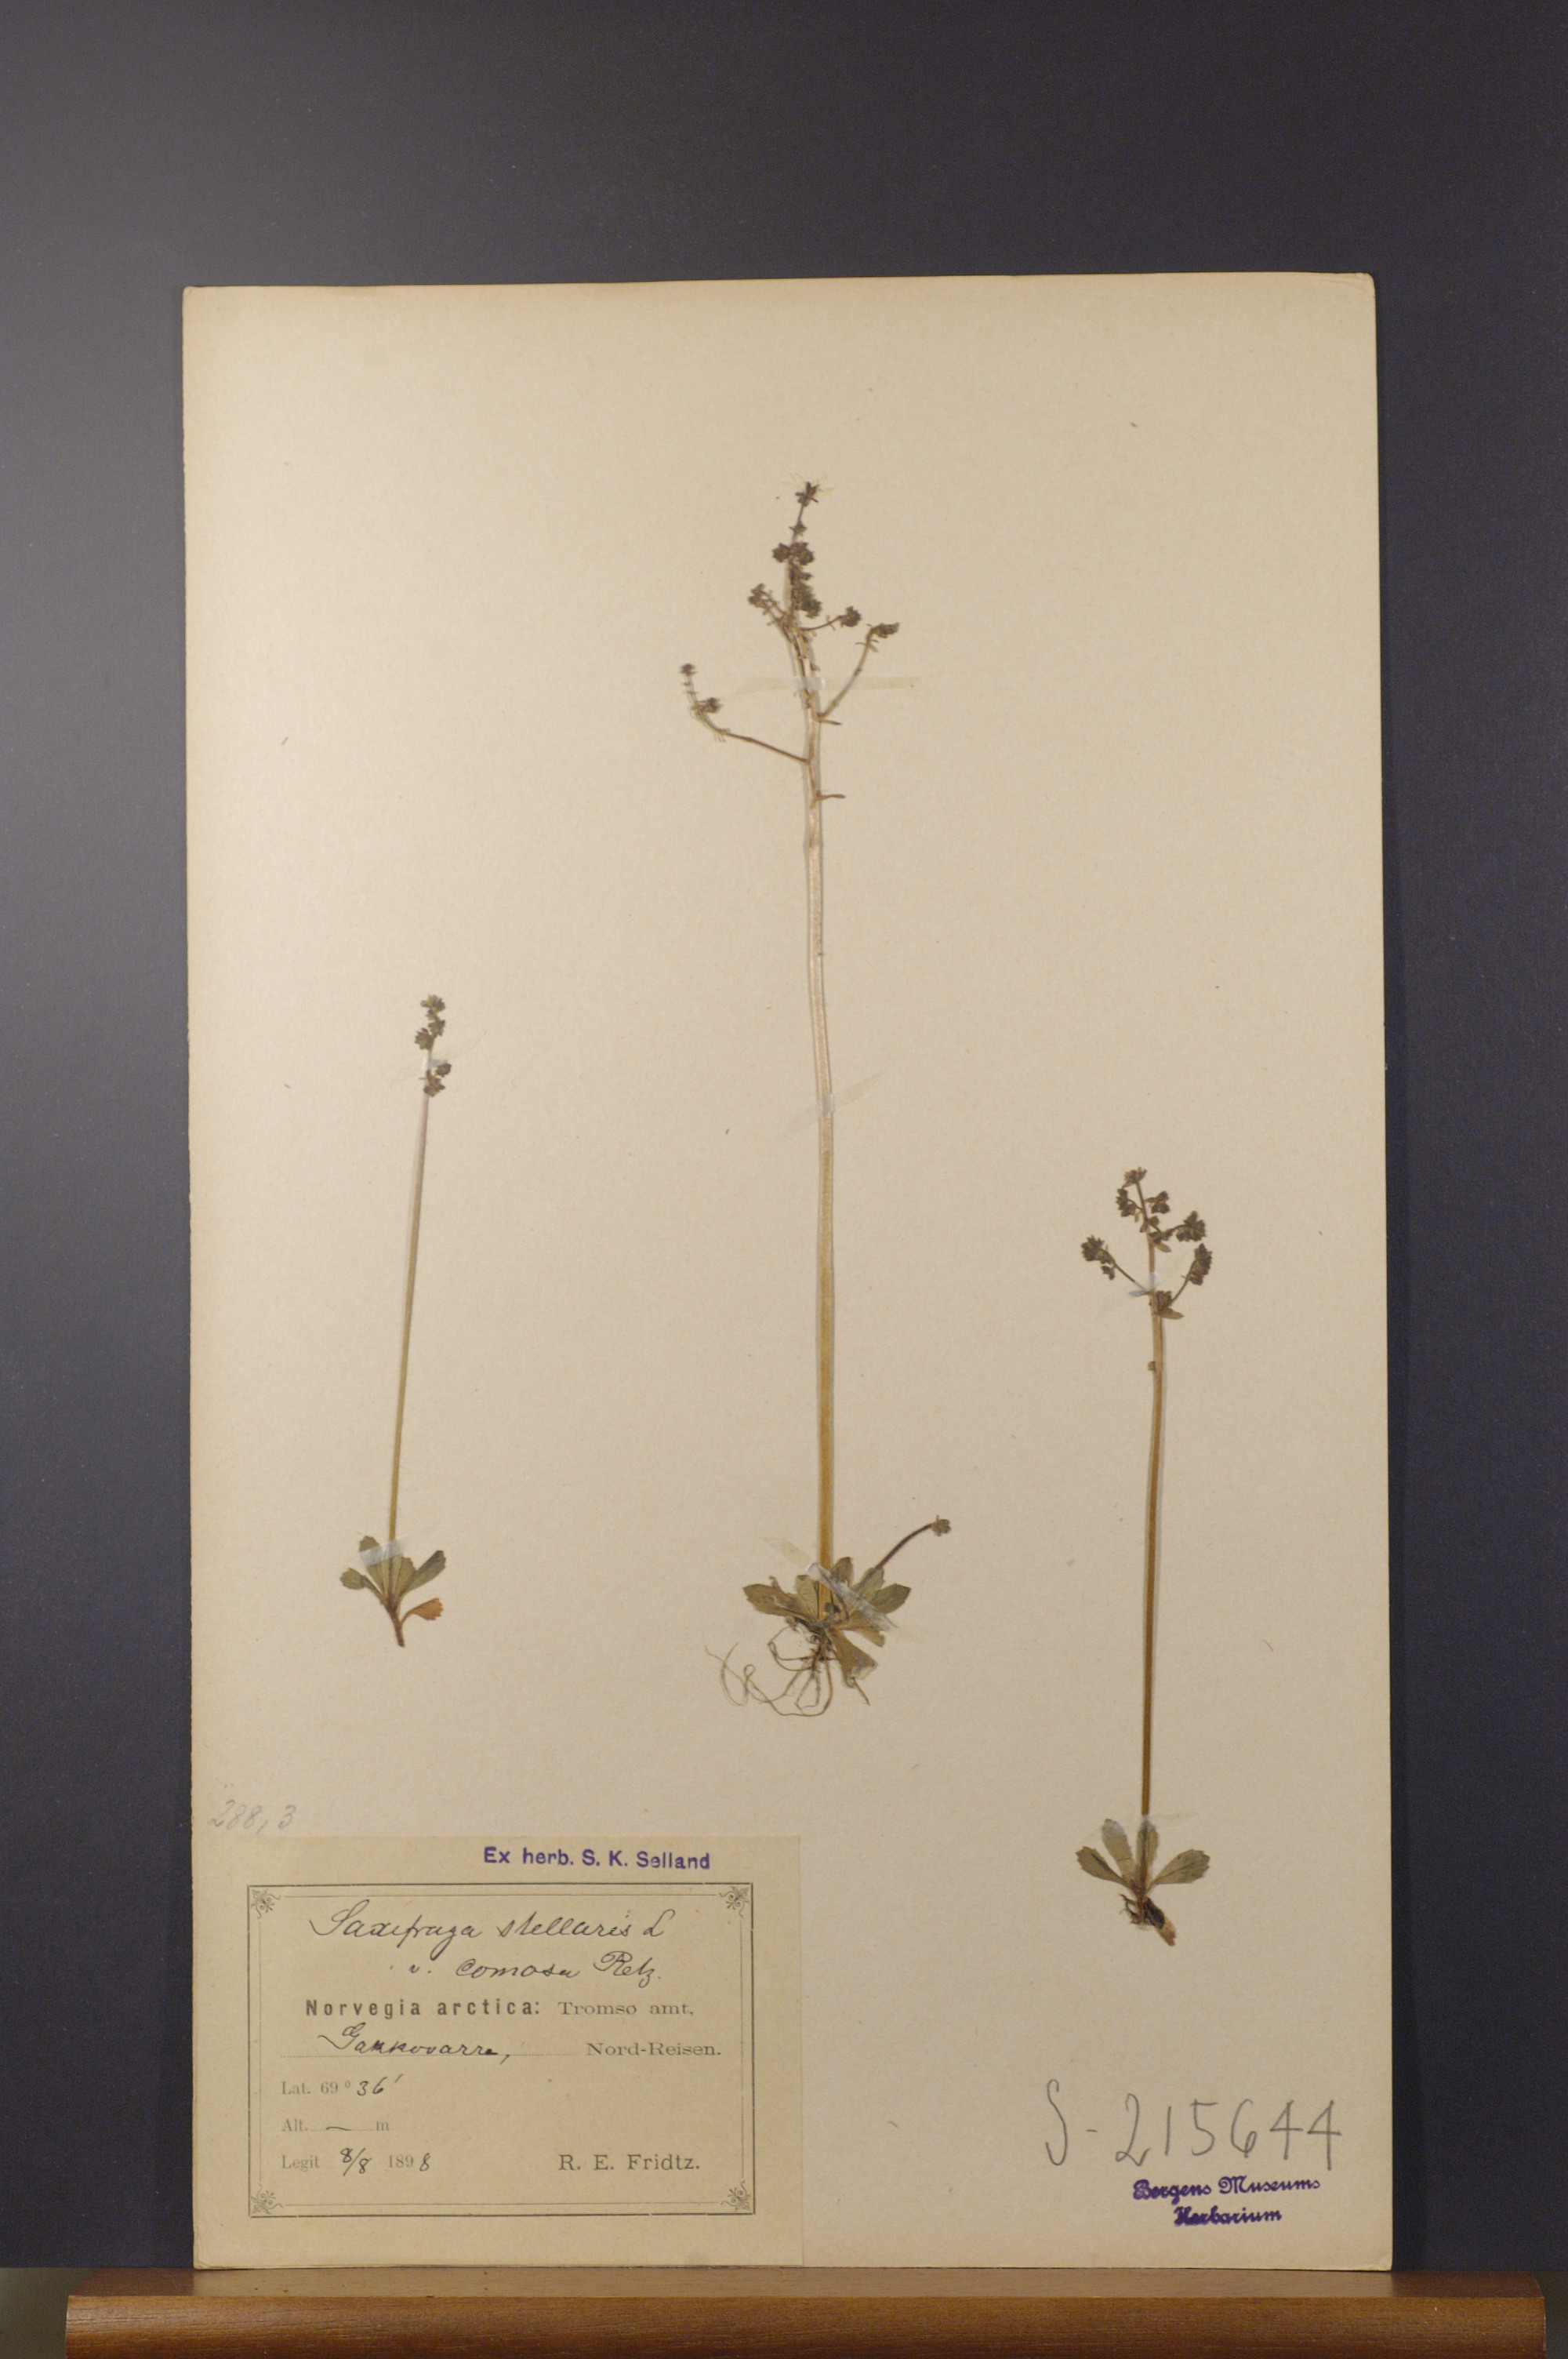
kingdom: Plantae
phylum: Tracheophyta
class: Magnoliopsida
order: Saxifragales
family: Saxifragaceae
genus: Micranthes
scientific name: Micranthes foliolosa
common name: Leafystem saxifrage
